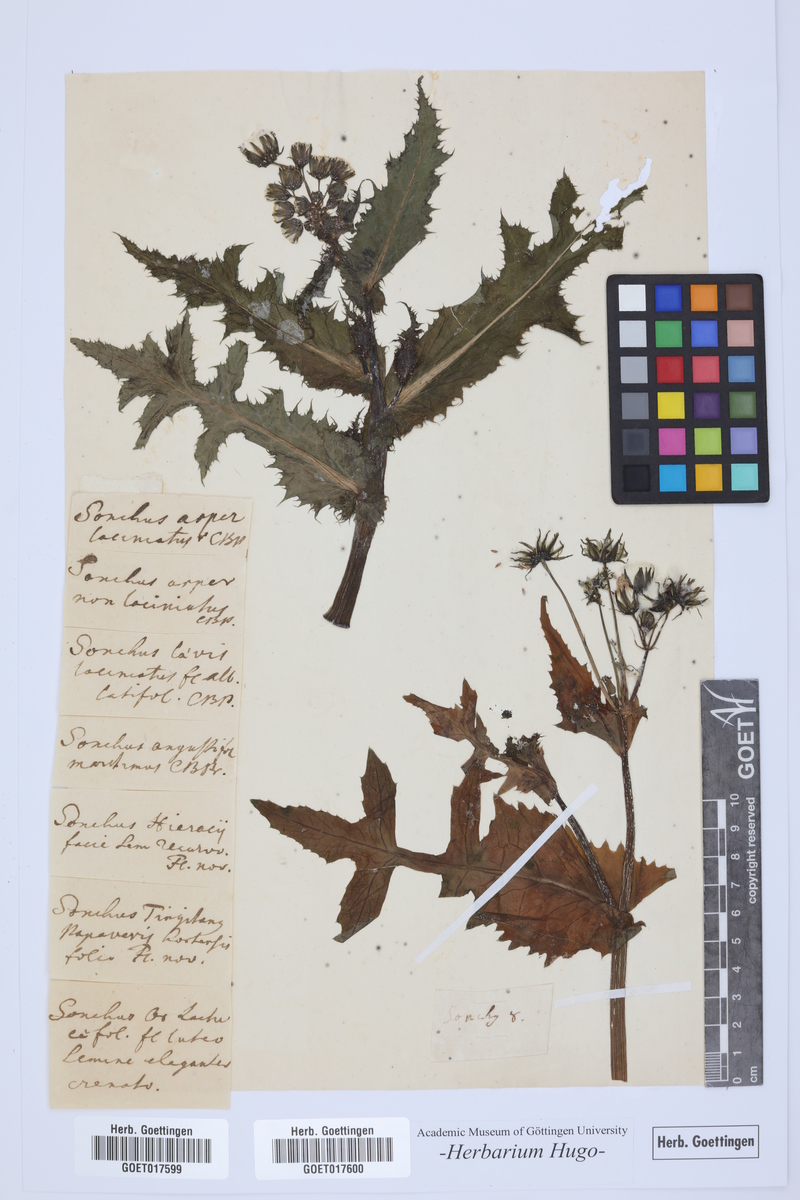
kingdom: Plantae
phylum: Tracheophyta
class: Magnoliopsida
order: Asterales
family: Asteraceae
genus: Sonchus
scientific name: Sonchus
